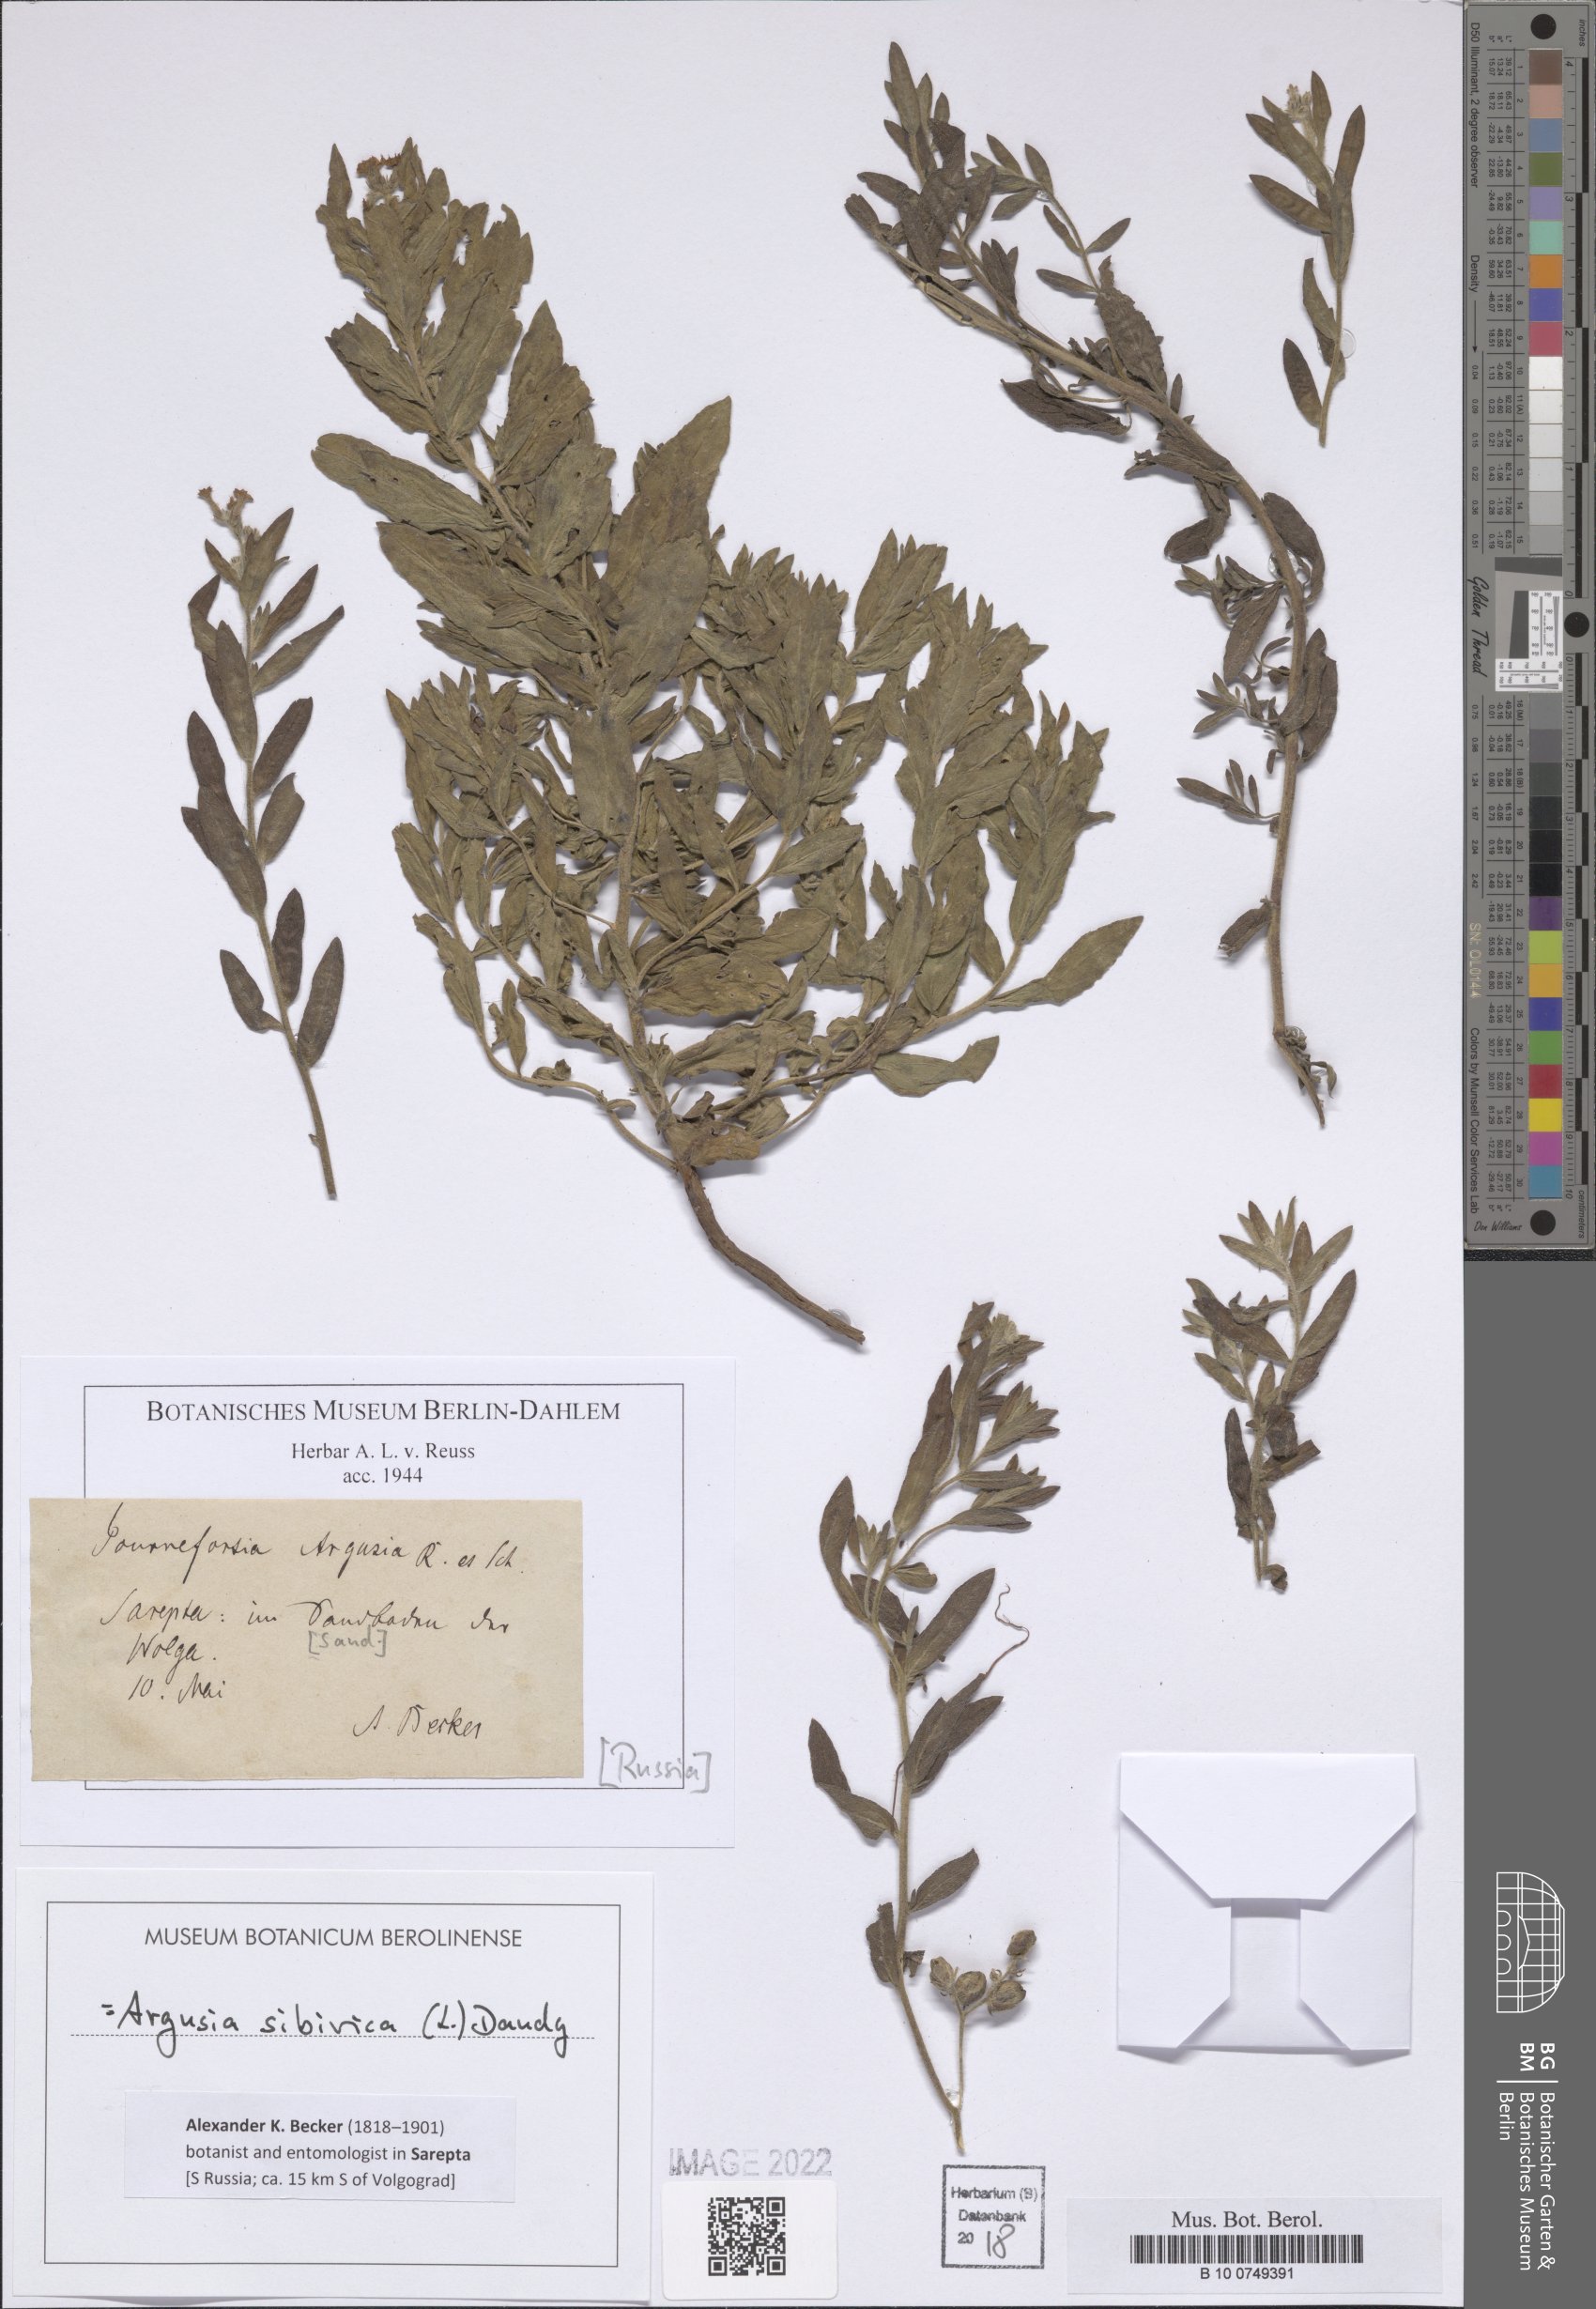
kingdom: Plantae
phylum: Tracheophyta
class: Magnoliopsida
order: Boraginales
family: Heliotropiaceae
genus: Tournefortia
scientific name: Tournefortia sibirica
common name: Siberian sea rosemary
